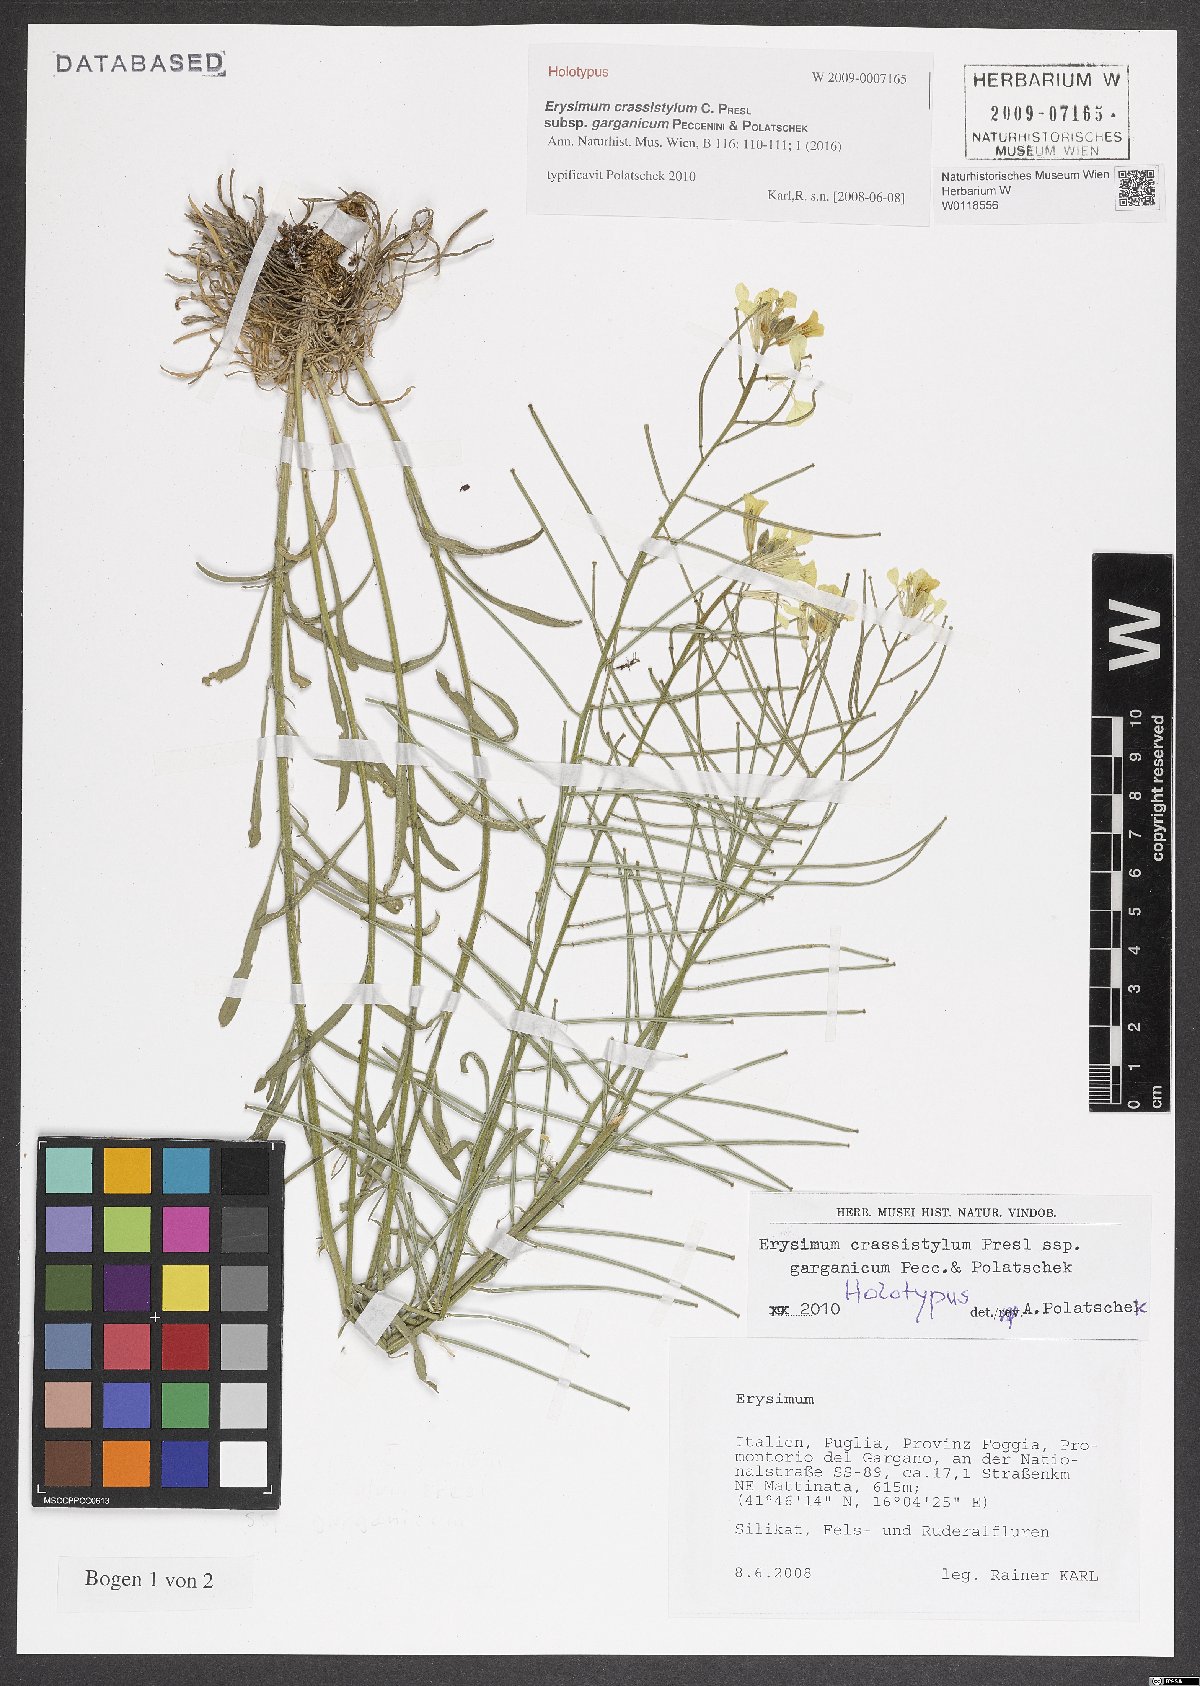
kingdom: Plantae
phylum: Tracheophyta
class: Magnoliopsida
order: Brassicales
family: Brassicaceae
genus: Erysimum
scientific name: Erysimum crassistylum
